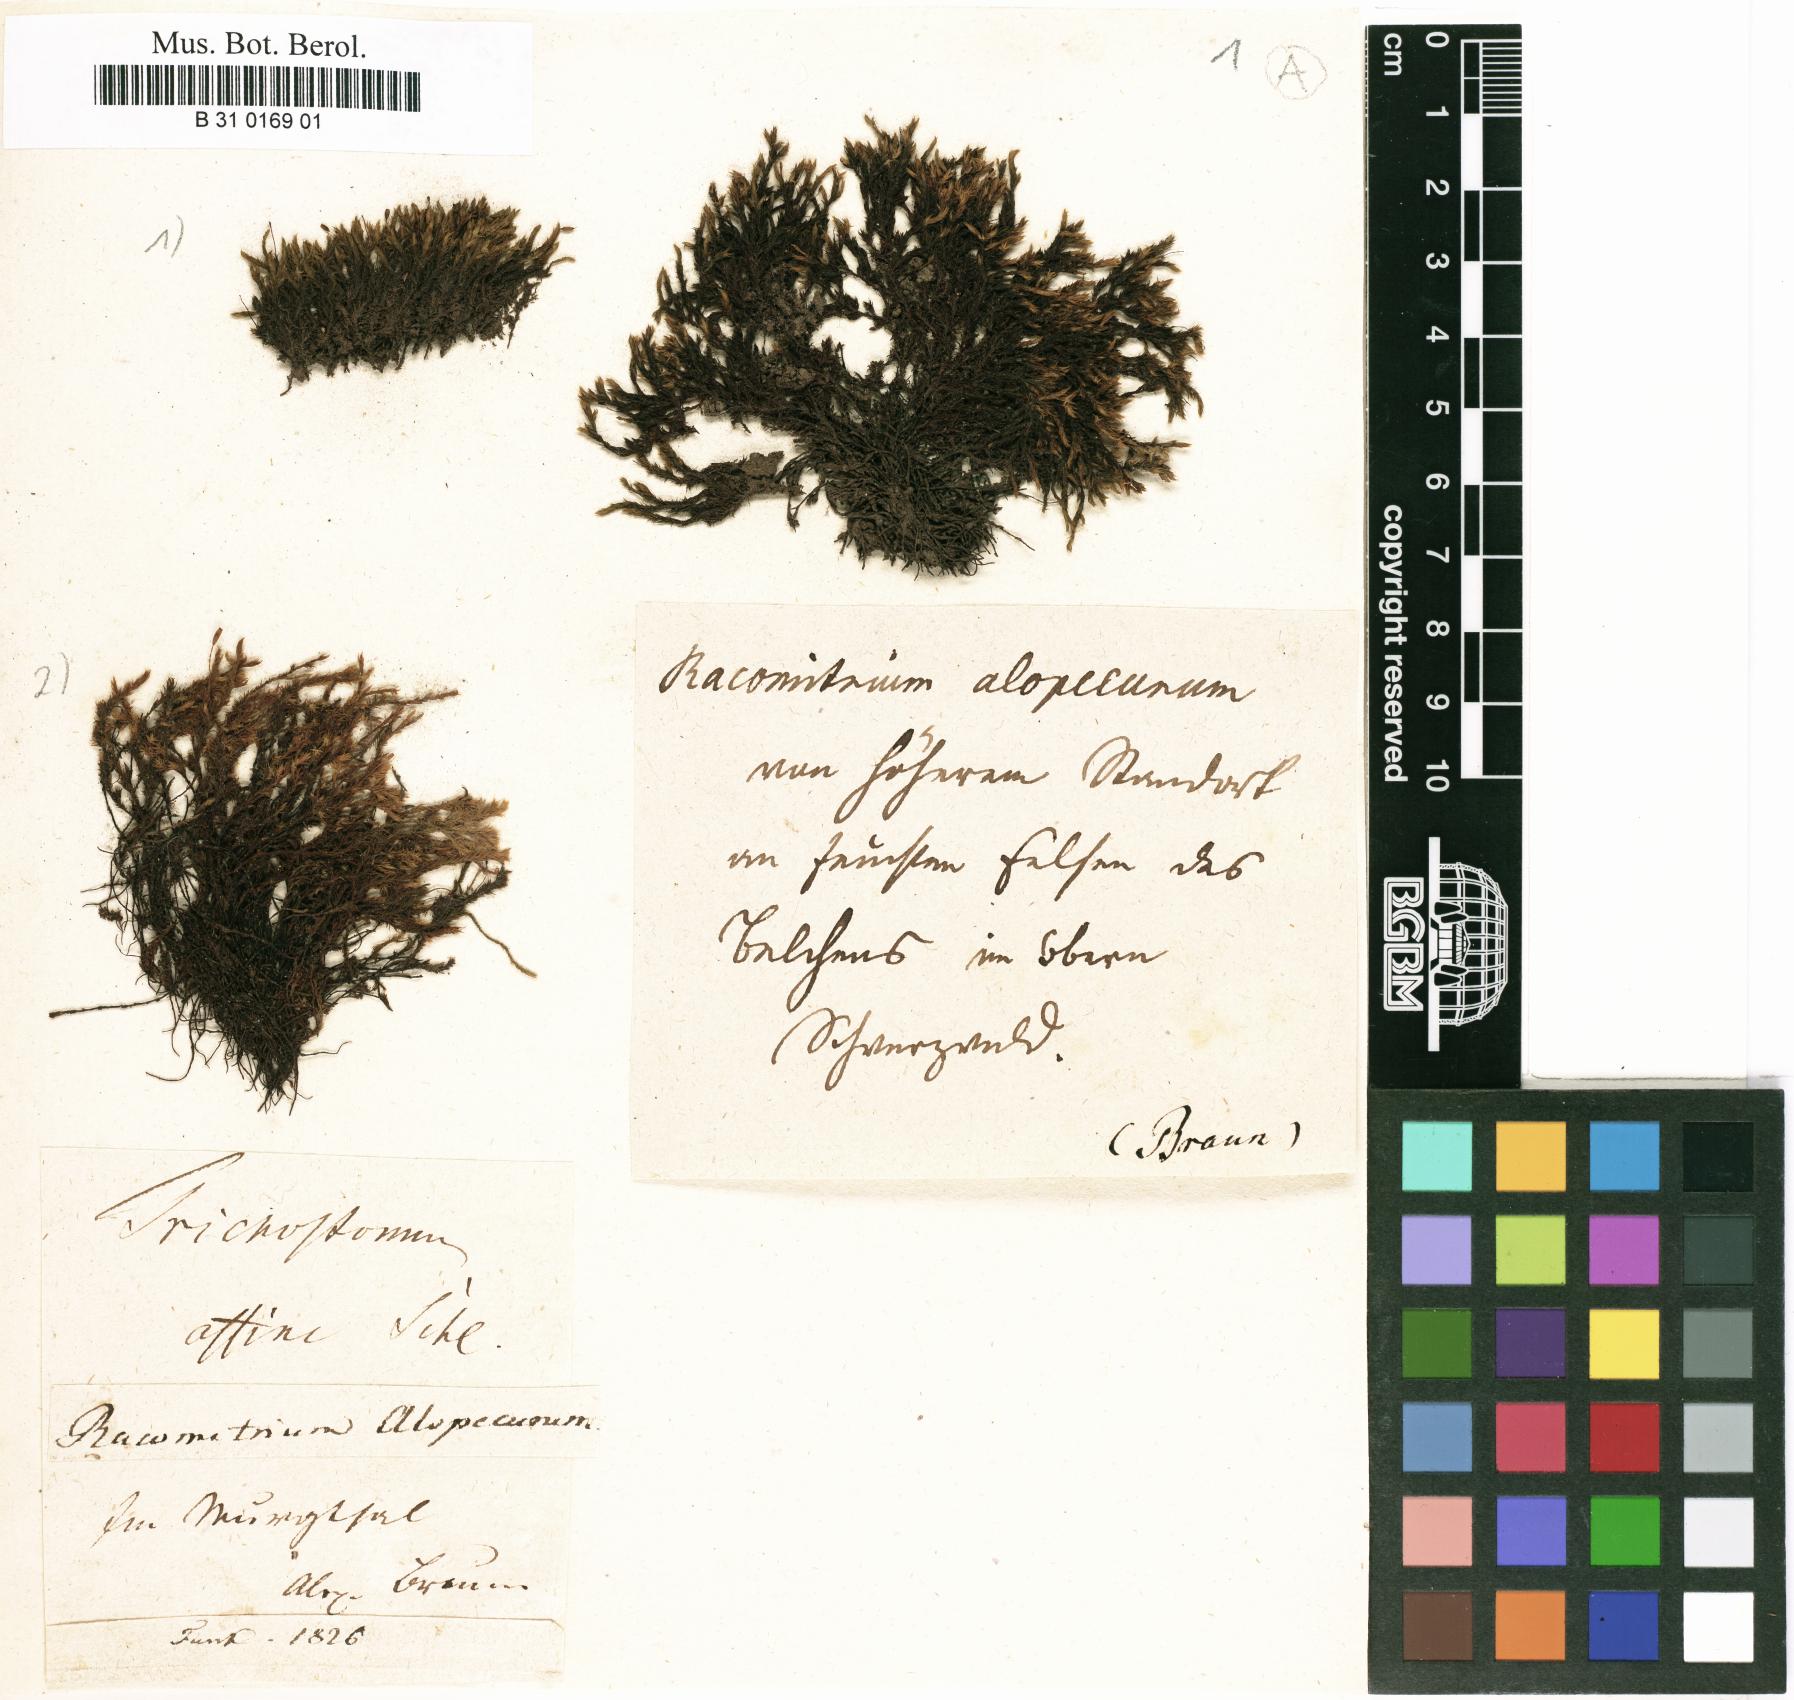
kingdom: Plantae
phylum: Bryophyta
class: Bryopsida
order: Grimmiales
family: Grimmiaceae
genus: Bucklandiella
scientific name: Bucklandiella affinis
